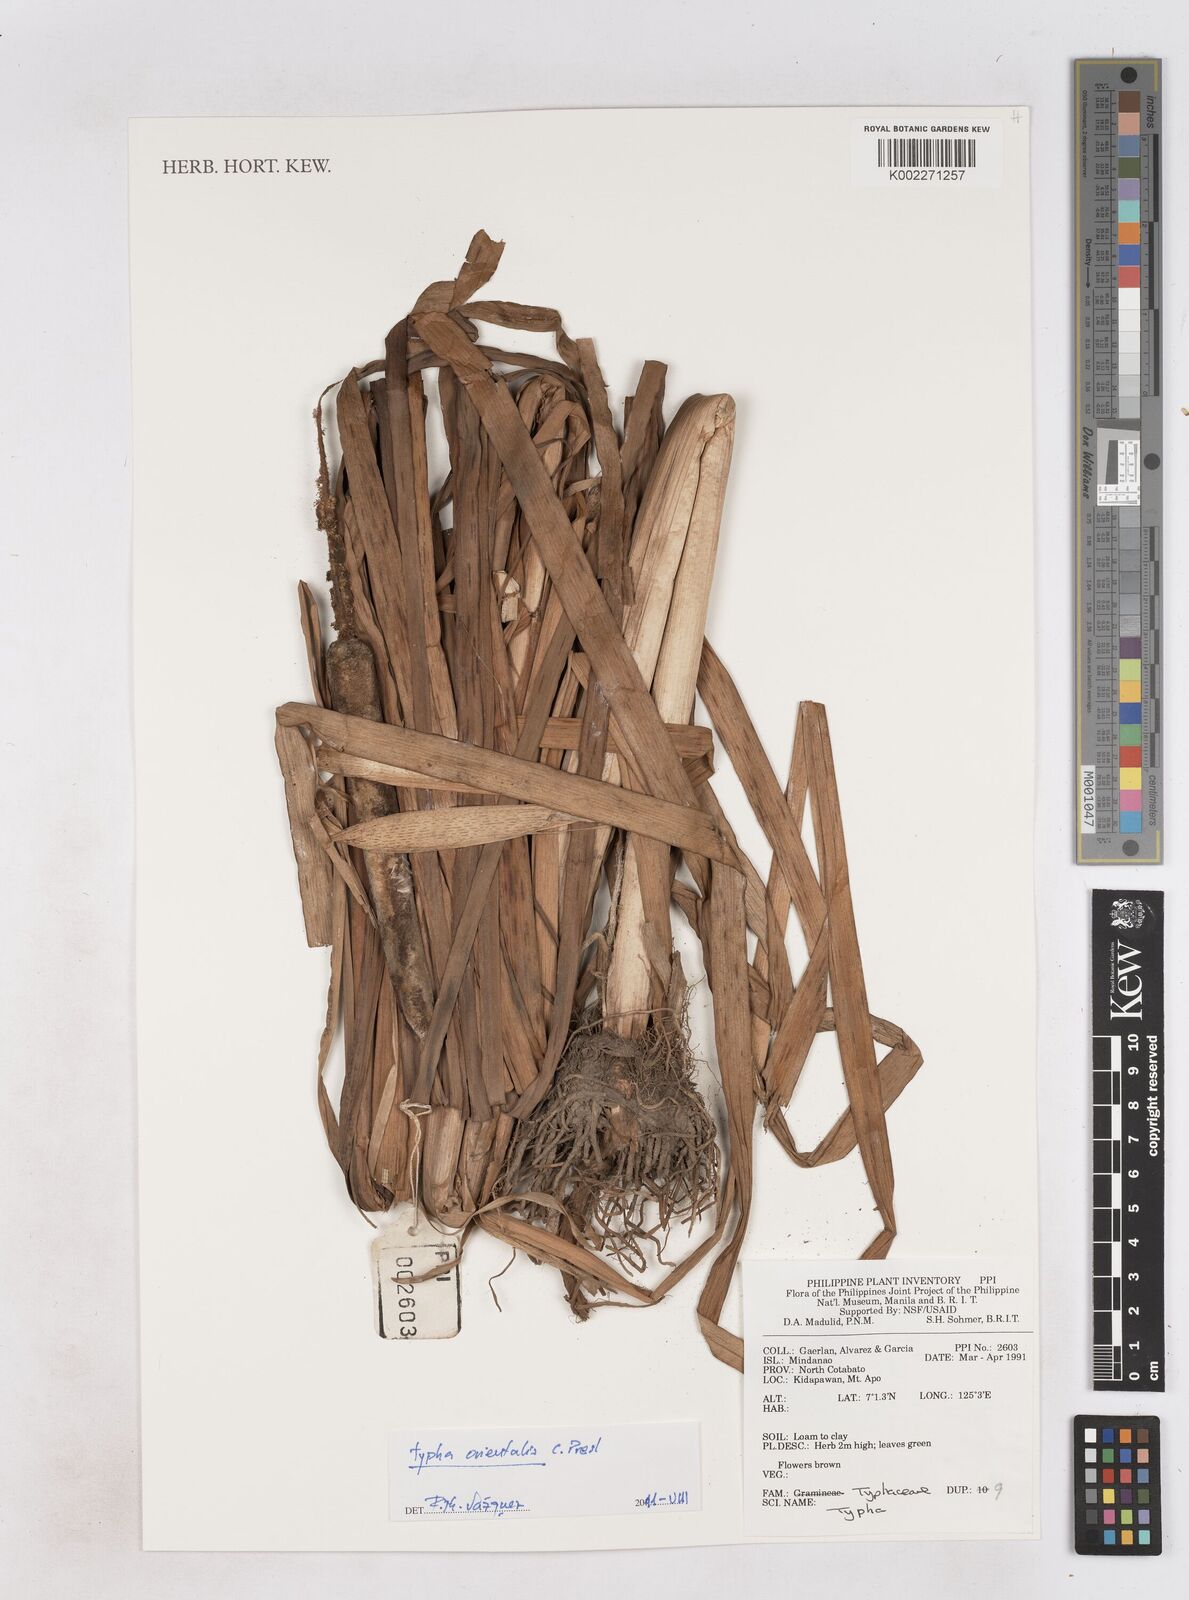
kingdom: Plantae
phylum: Tracheophyta
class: Liliopsida
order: Poales
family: Typhaceae
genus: Typha
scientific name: Typha
